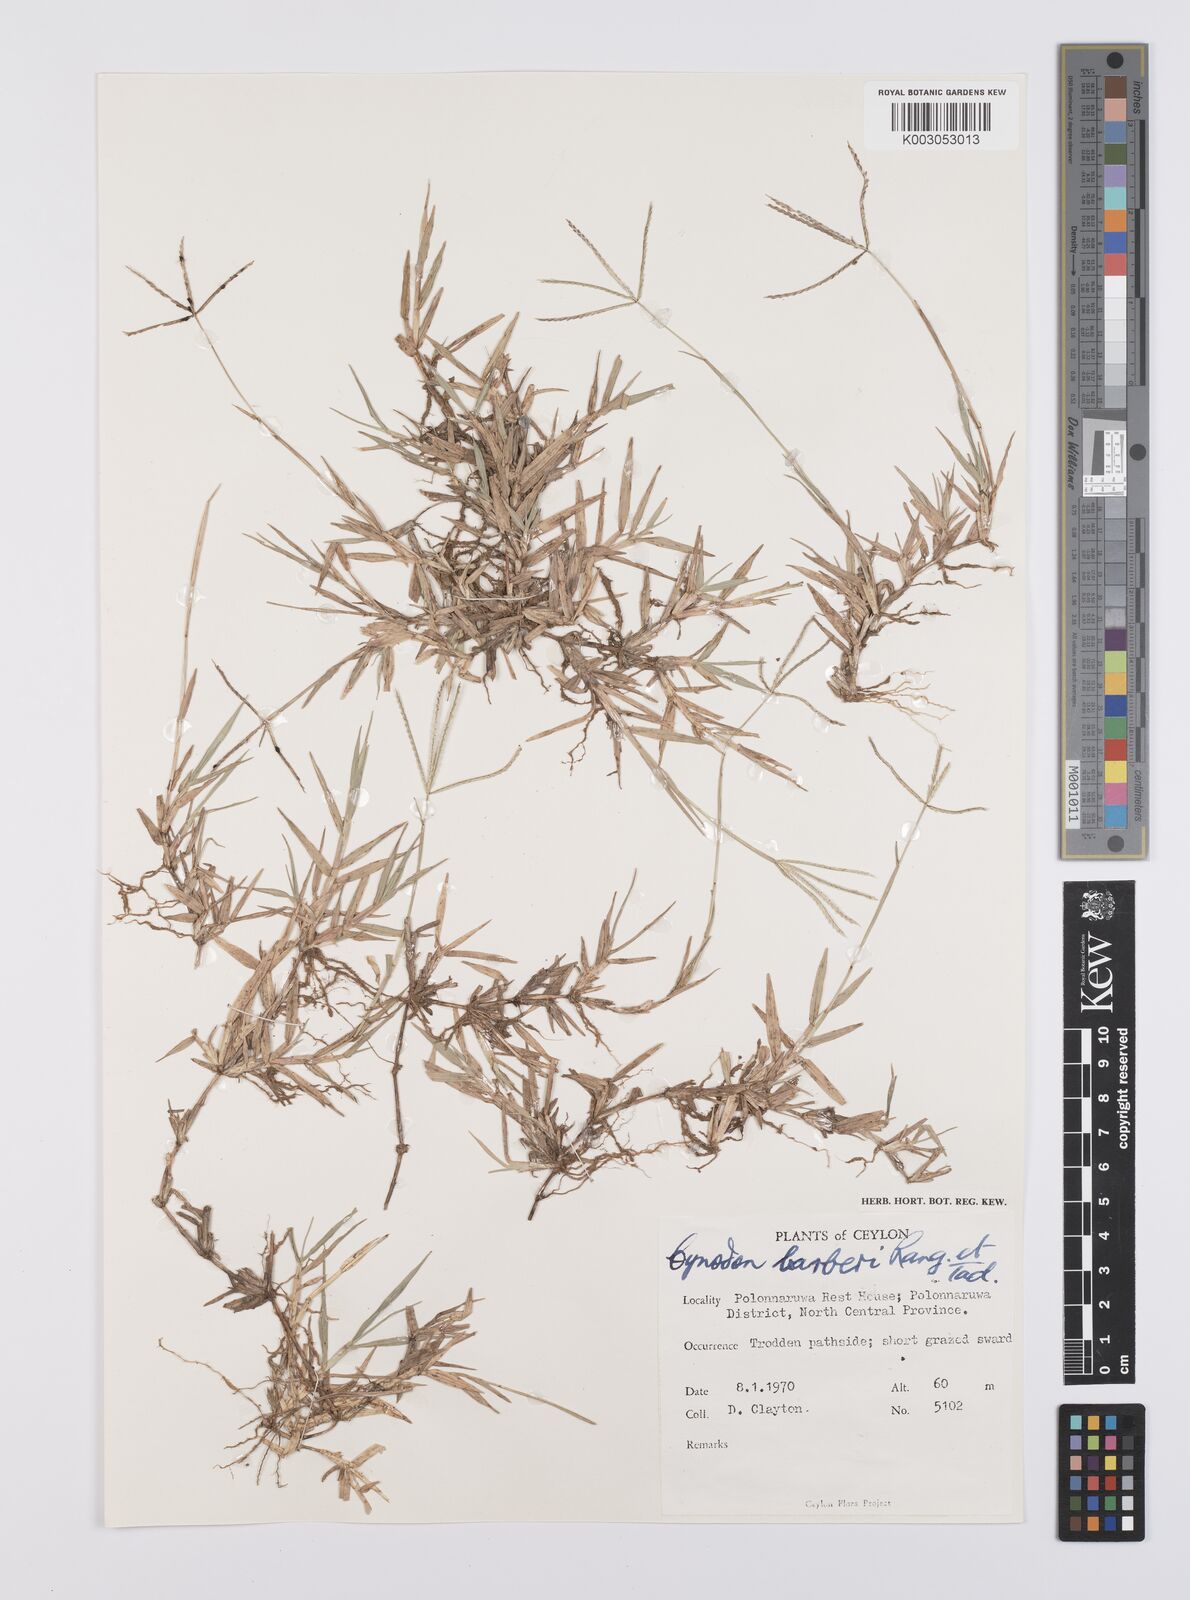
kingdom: Plantae
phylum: Tracheophyta
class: Liliopsida
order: Poales
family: Poaceae
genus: Cynodon
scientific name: Cynodon barberi
